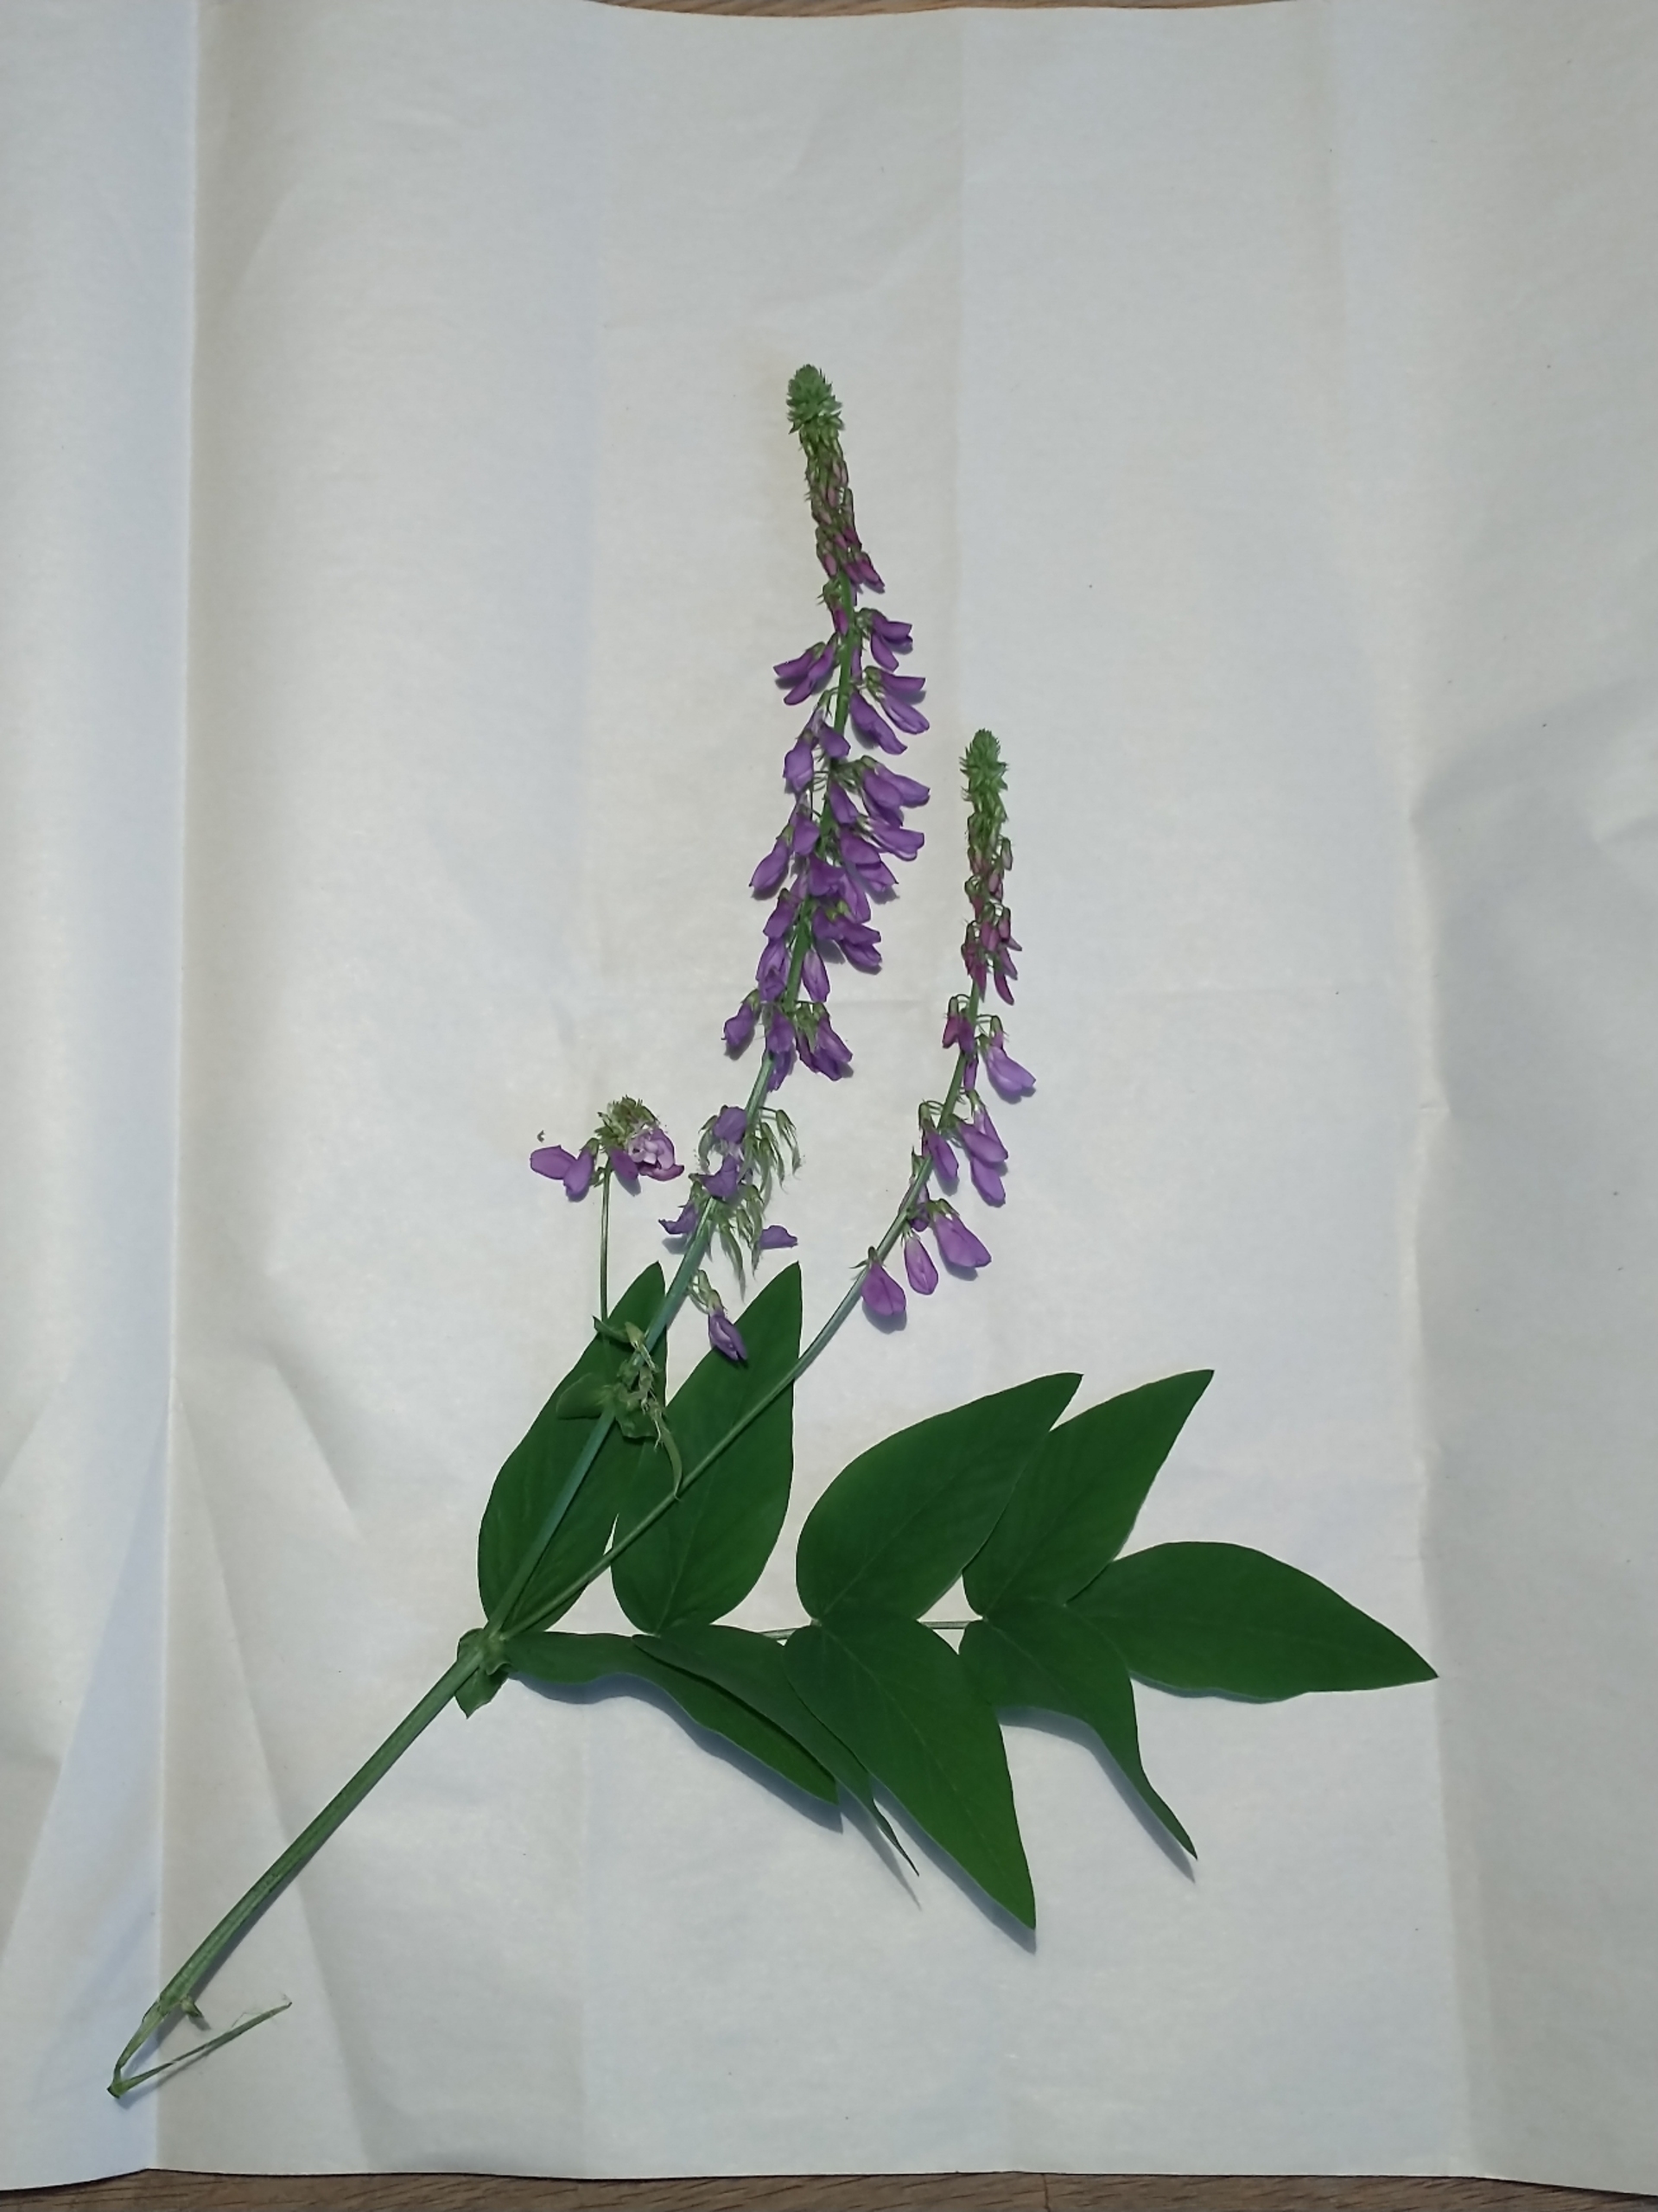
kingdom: Plantae
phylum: Tracheophyta
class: Magnoliopsida
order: Fabales
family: Fabaceae
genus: Galega
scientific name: Galega orientalis
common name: Blå stregbælg
